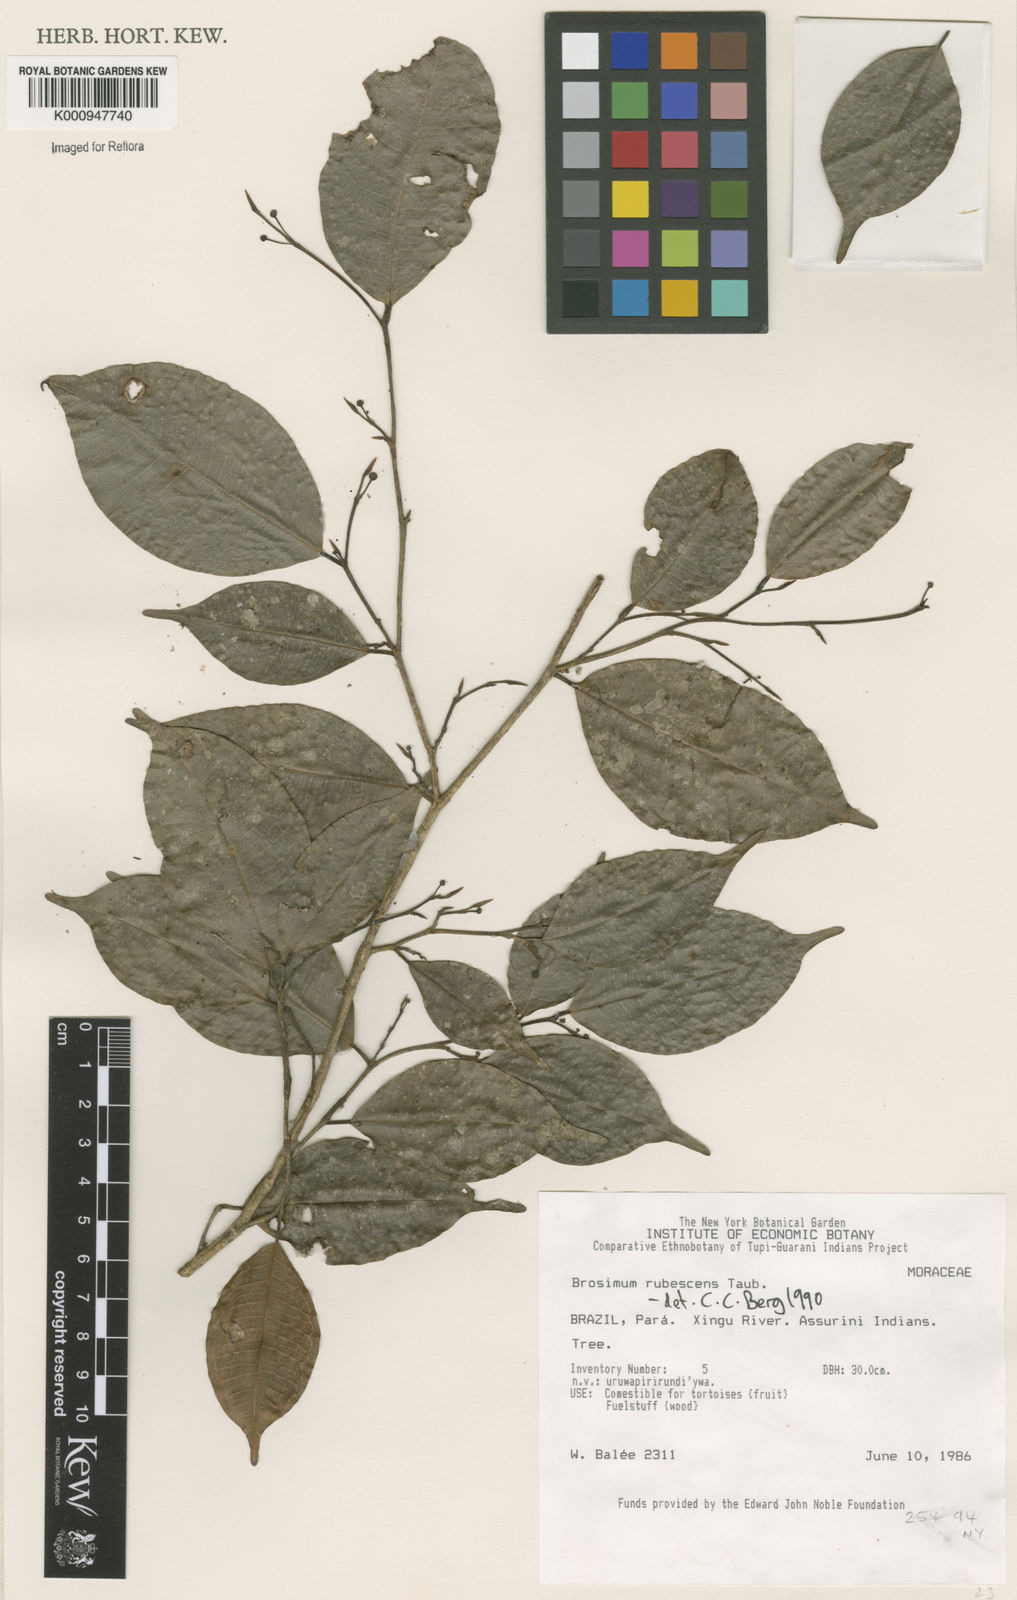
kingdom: Plantae
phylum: Tracheophyta
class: Magnoliopsida
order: Rosales
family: Moraceae
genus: Brosimum
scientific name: Brosimum rubescens
